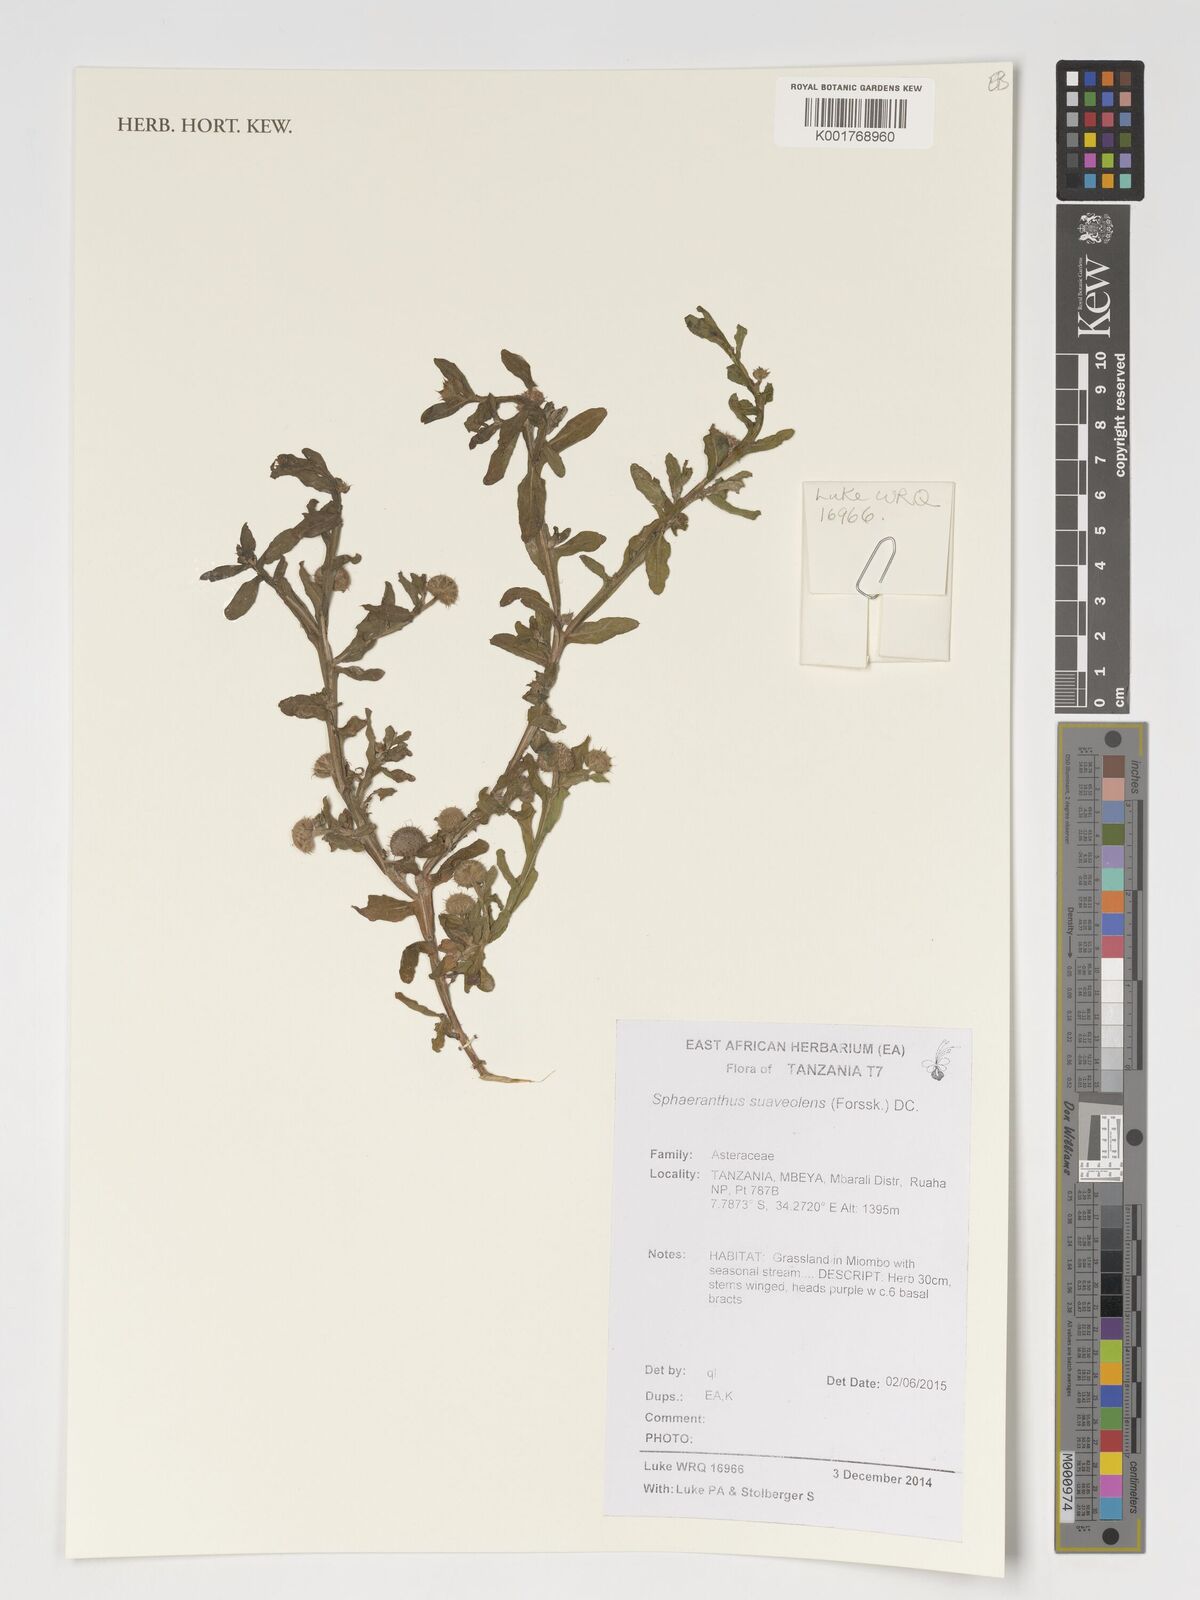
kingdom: Plantae
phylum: Tracheophyta
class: Magnoliopsida
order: Asterales
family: Asteraceae
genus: Sphaeranthus
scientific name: Sphaeranthus suaveolens
